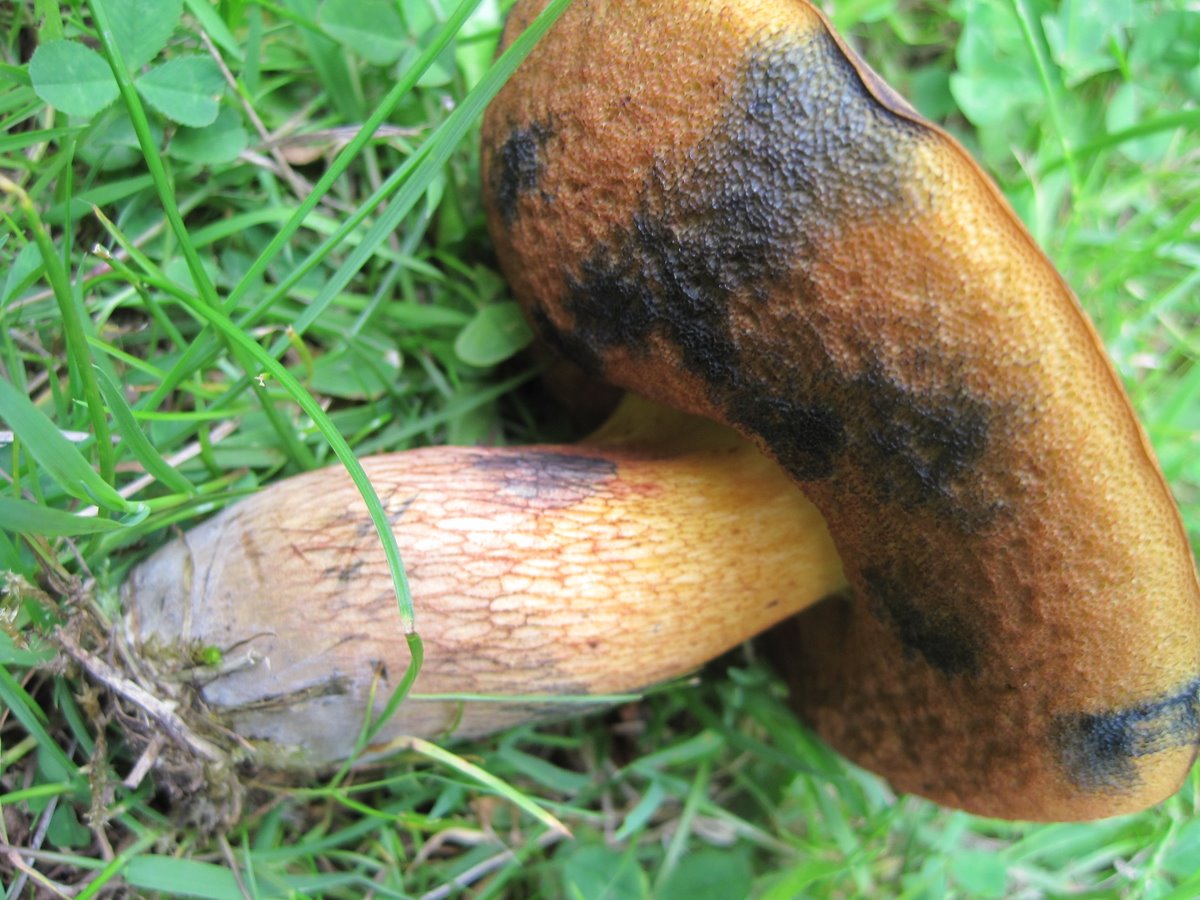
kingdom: Fungi
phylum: Basidiomycota
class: Agaricomycetes
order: Boletales
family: Boletaceae
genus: Suillellus
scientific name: Suillellus luridus
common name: netstokket indigorørhat
